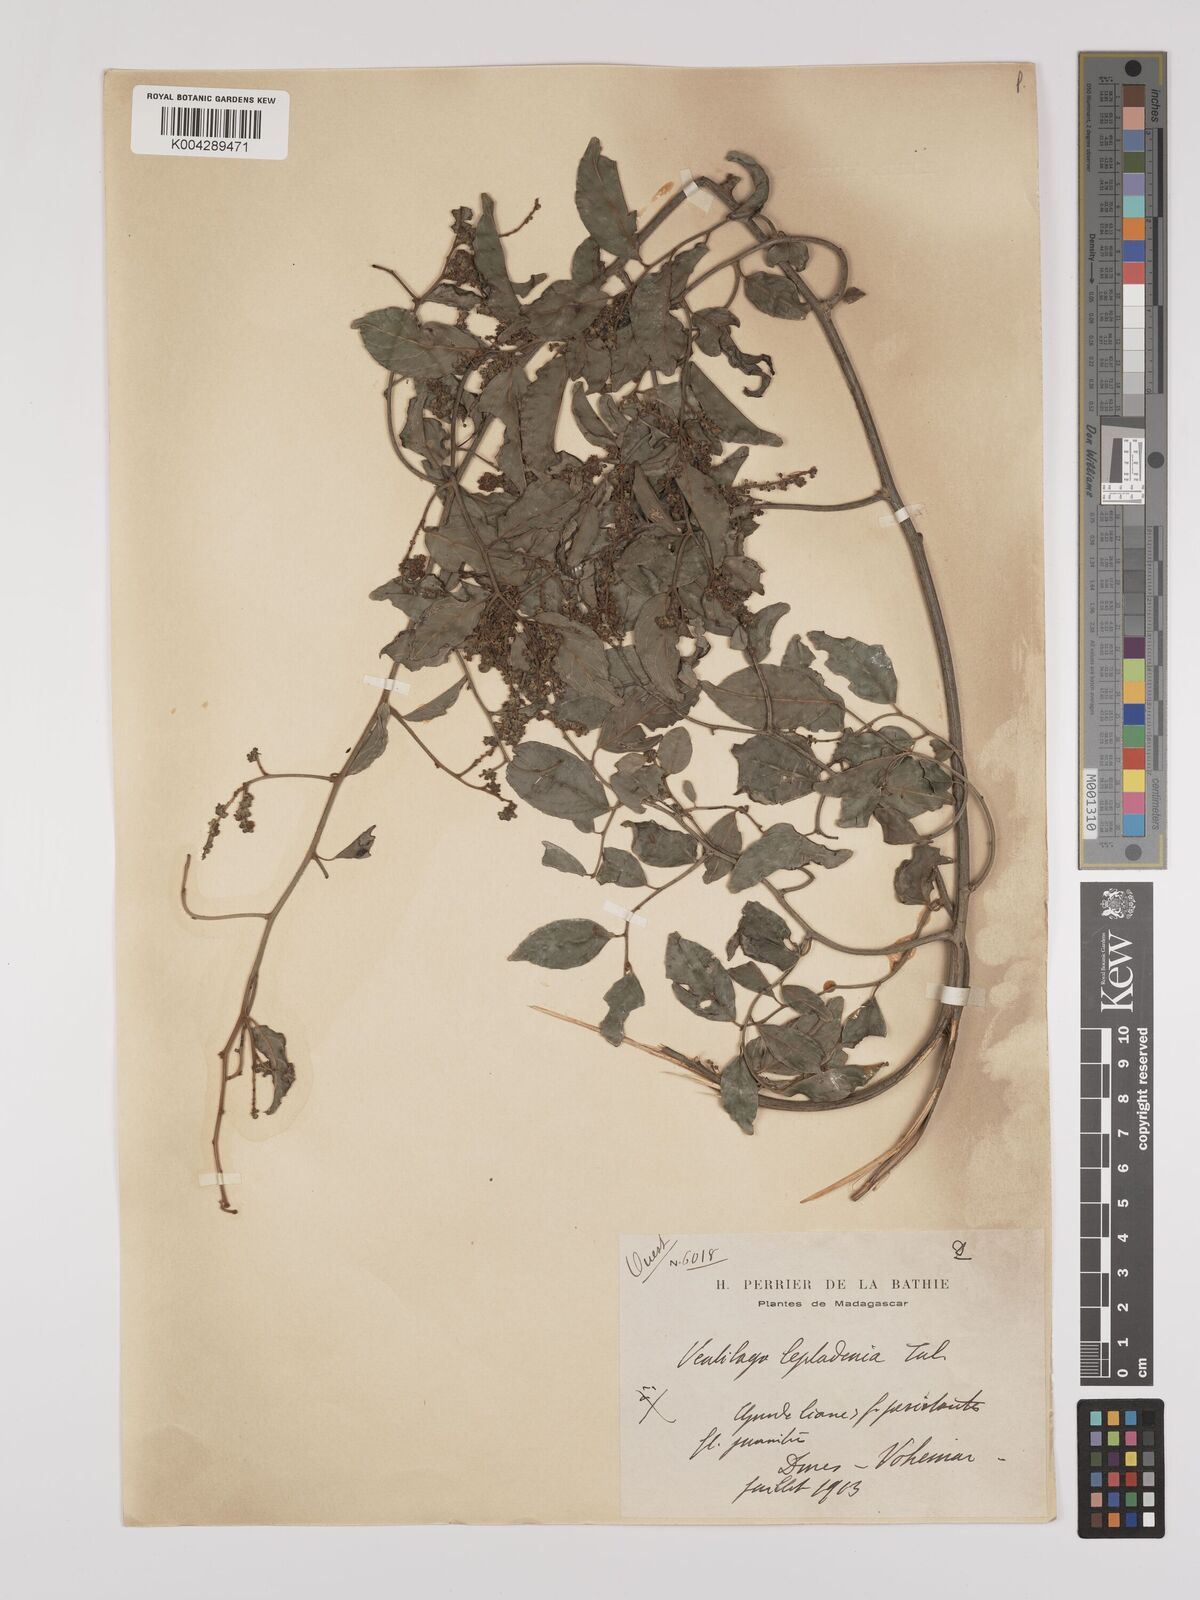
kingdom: Plantae
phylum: Tracheophyta
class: Magnoliopsida
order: Rosales
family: Rhamnaceae
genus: Ventilago
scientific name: Ventilago leptadenia
